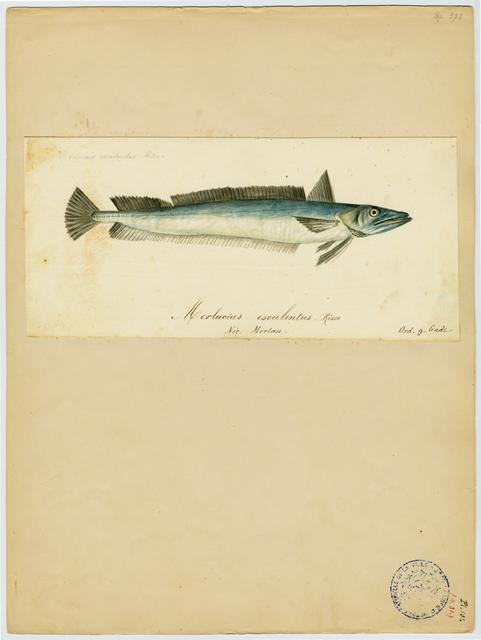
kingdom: Animalia
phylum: Chordata
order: Gadiformes
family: Merlucciidae
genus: Merluccius
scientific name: Merluccius merluccius
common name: European hake
